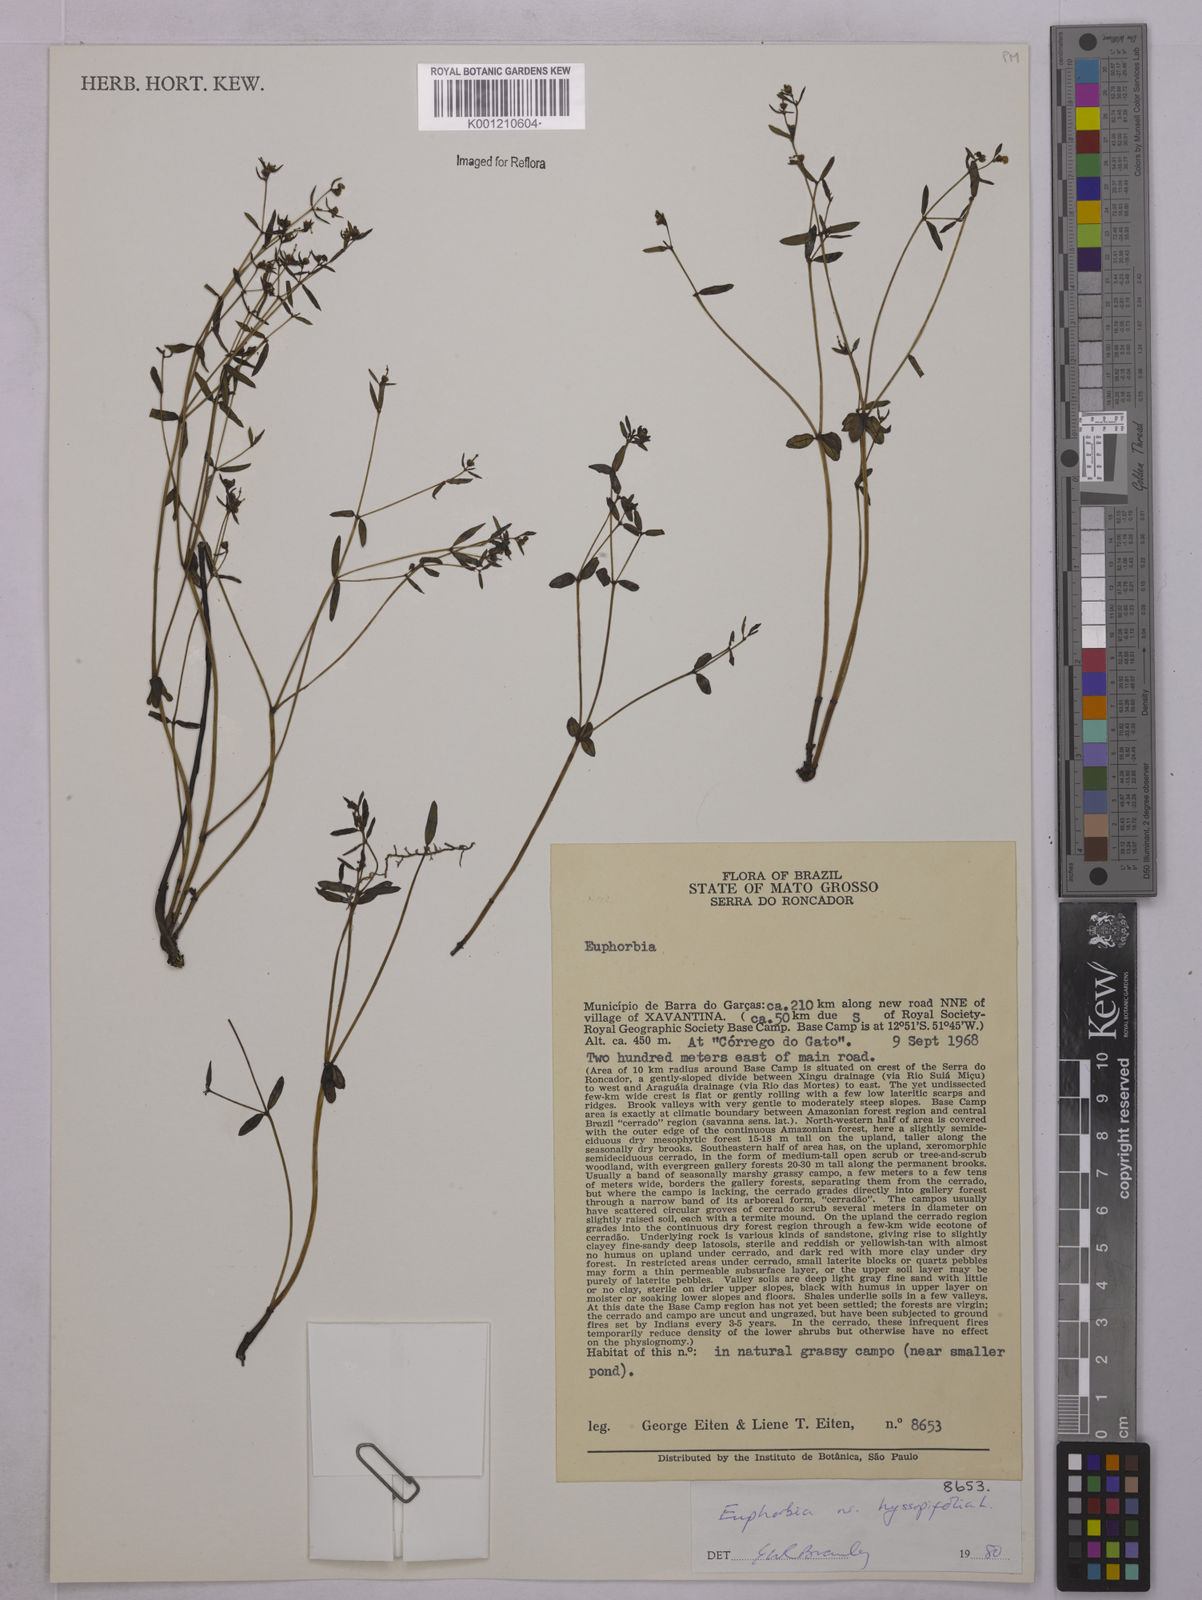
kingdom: Plantae
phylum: Tracheophyta
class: Magnoliopsida
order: Malpighiales
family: Euphorbiaceae
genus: Euphorbia
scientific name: Euphorbia hyssopifolia
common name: Hyssopleaf sandmat
